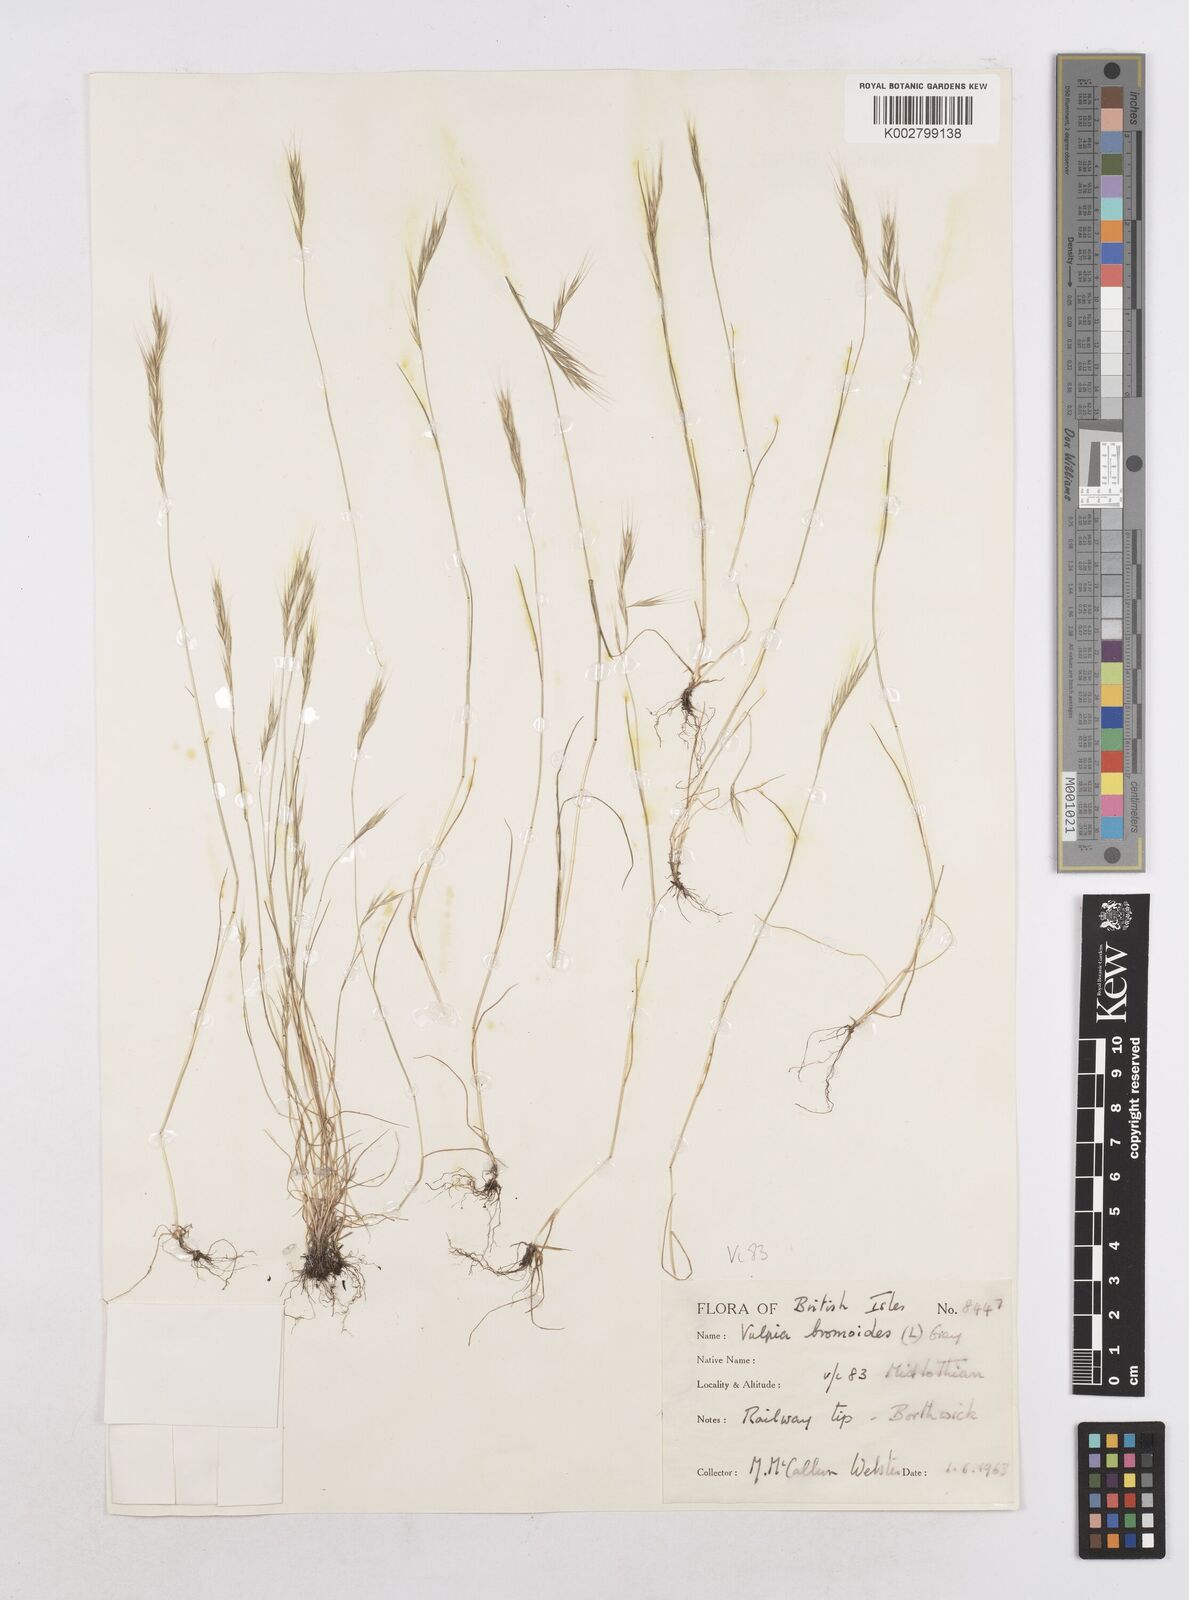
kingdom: Plantae
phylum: Tracheophyta
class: Liliopsida
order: Poales
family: Poaceae
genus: Festuca
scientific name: Festuca bromoides
